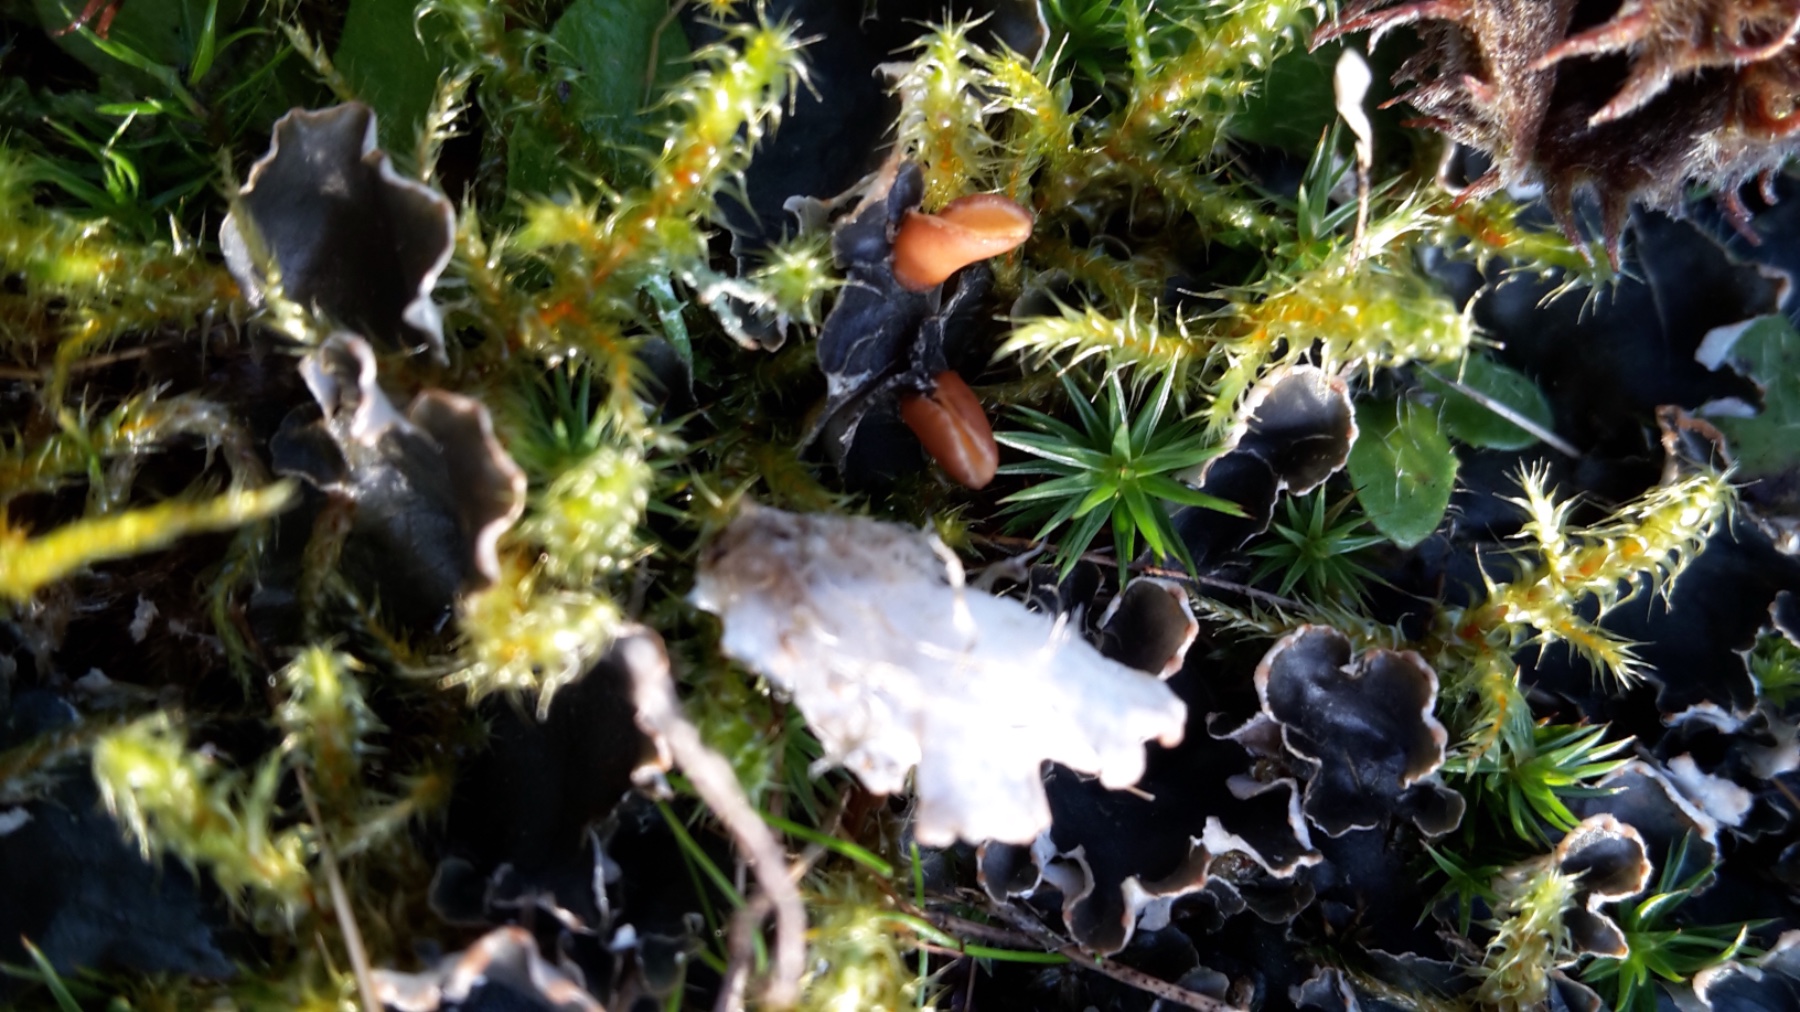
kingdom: Fungi
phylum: Ascomycota
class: Lecanoromycetes
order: Peltigerales
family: Peltigeraceae
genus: Peltigera
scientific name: Peltigera hymenina
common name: hinde-skjoldlav
